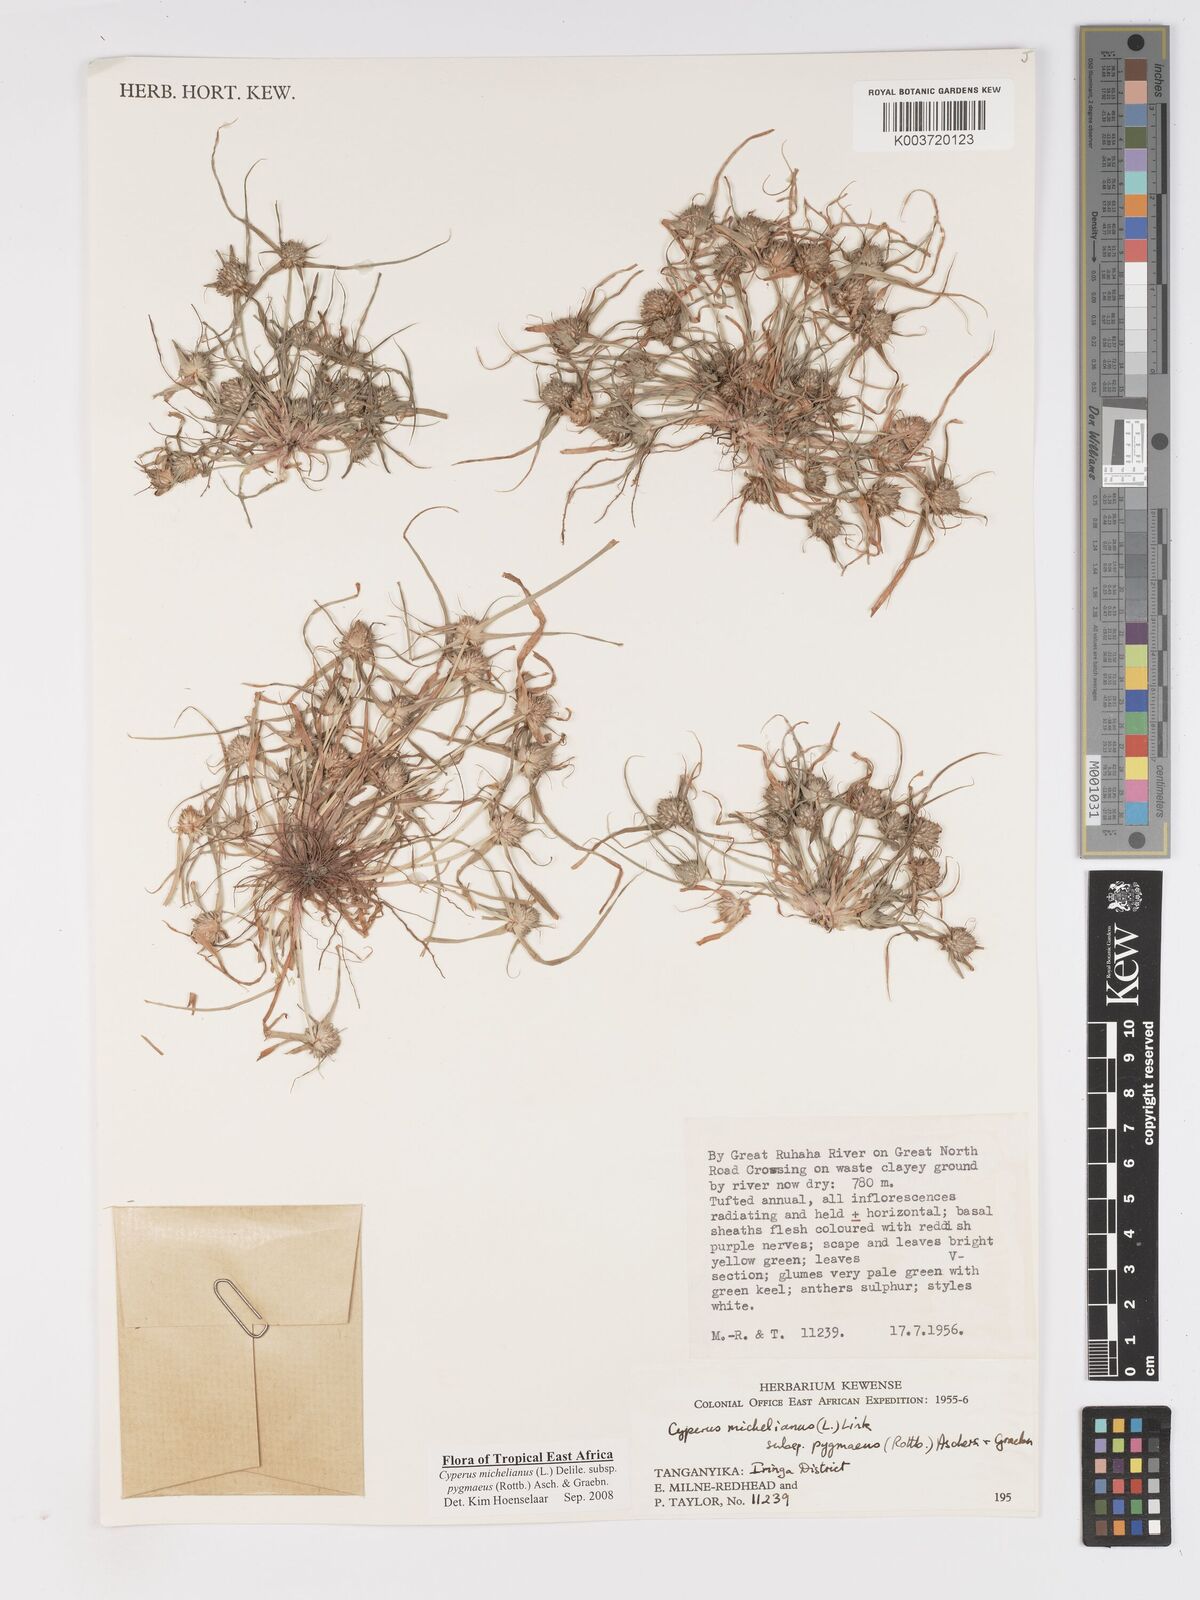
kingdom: Plantae
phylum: Tracheophyta
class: Liliopsida
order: Poales
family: Cyperaceae
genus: Cyperus
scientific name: Cyperus michelianus
